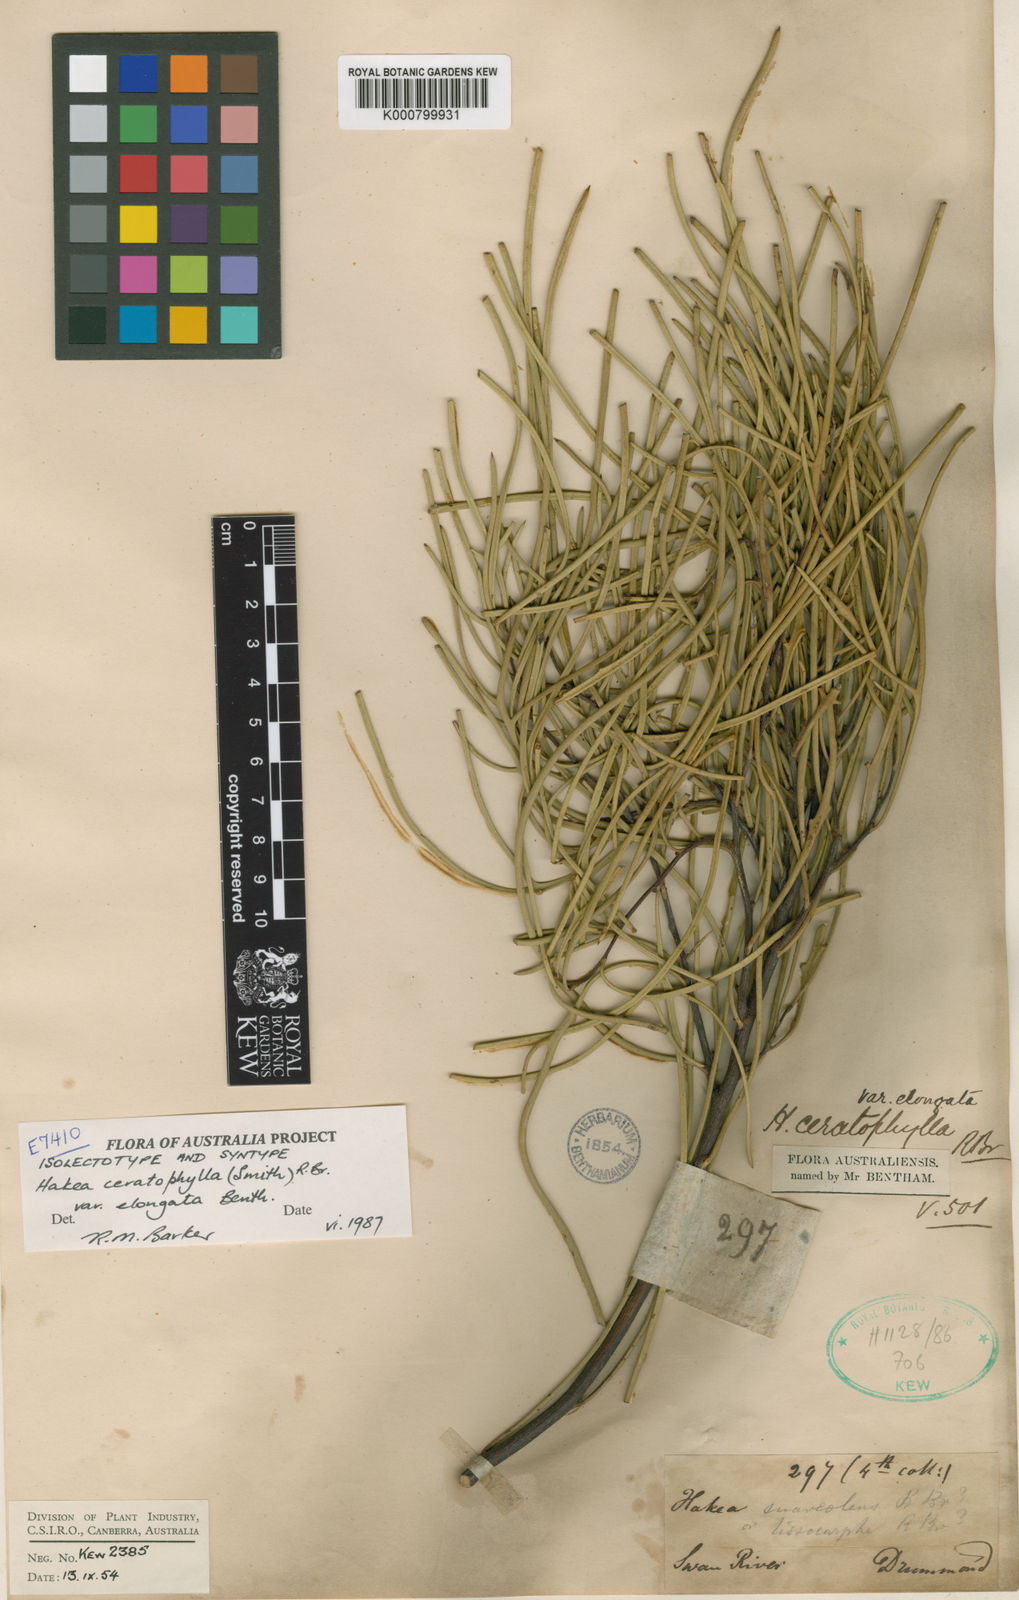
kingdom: Plantae
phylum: Tracheophyta
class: Magnoliopsida
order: Proteales
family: Proteaceae
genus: Hakea
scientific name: Hakea ceratophylla
